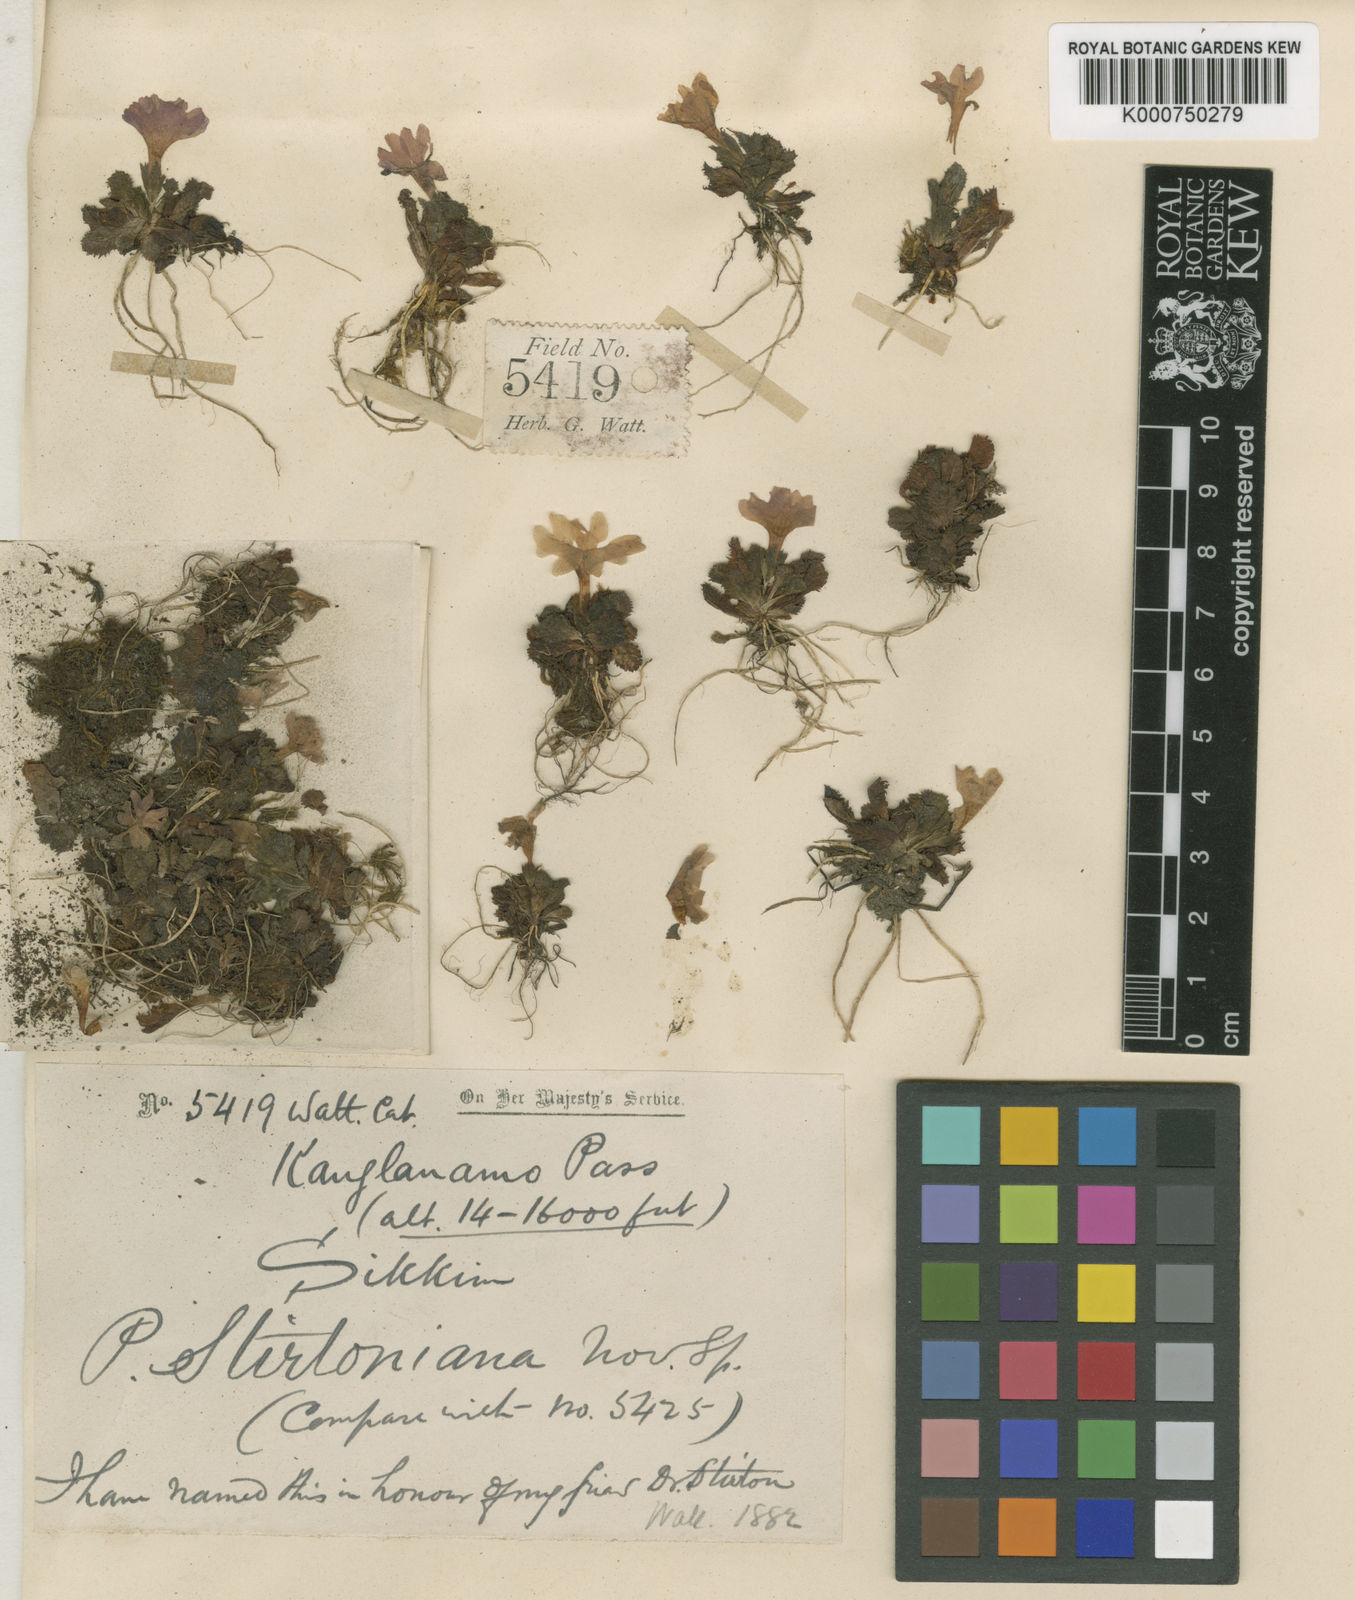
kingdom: Plantae
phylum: Tracheophyta
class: Magnoliopsida
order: Ericales
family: Primulaceae
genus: Primula
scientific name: Primula stirtoniana
